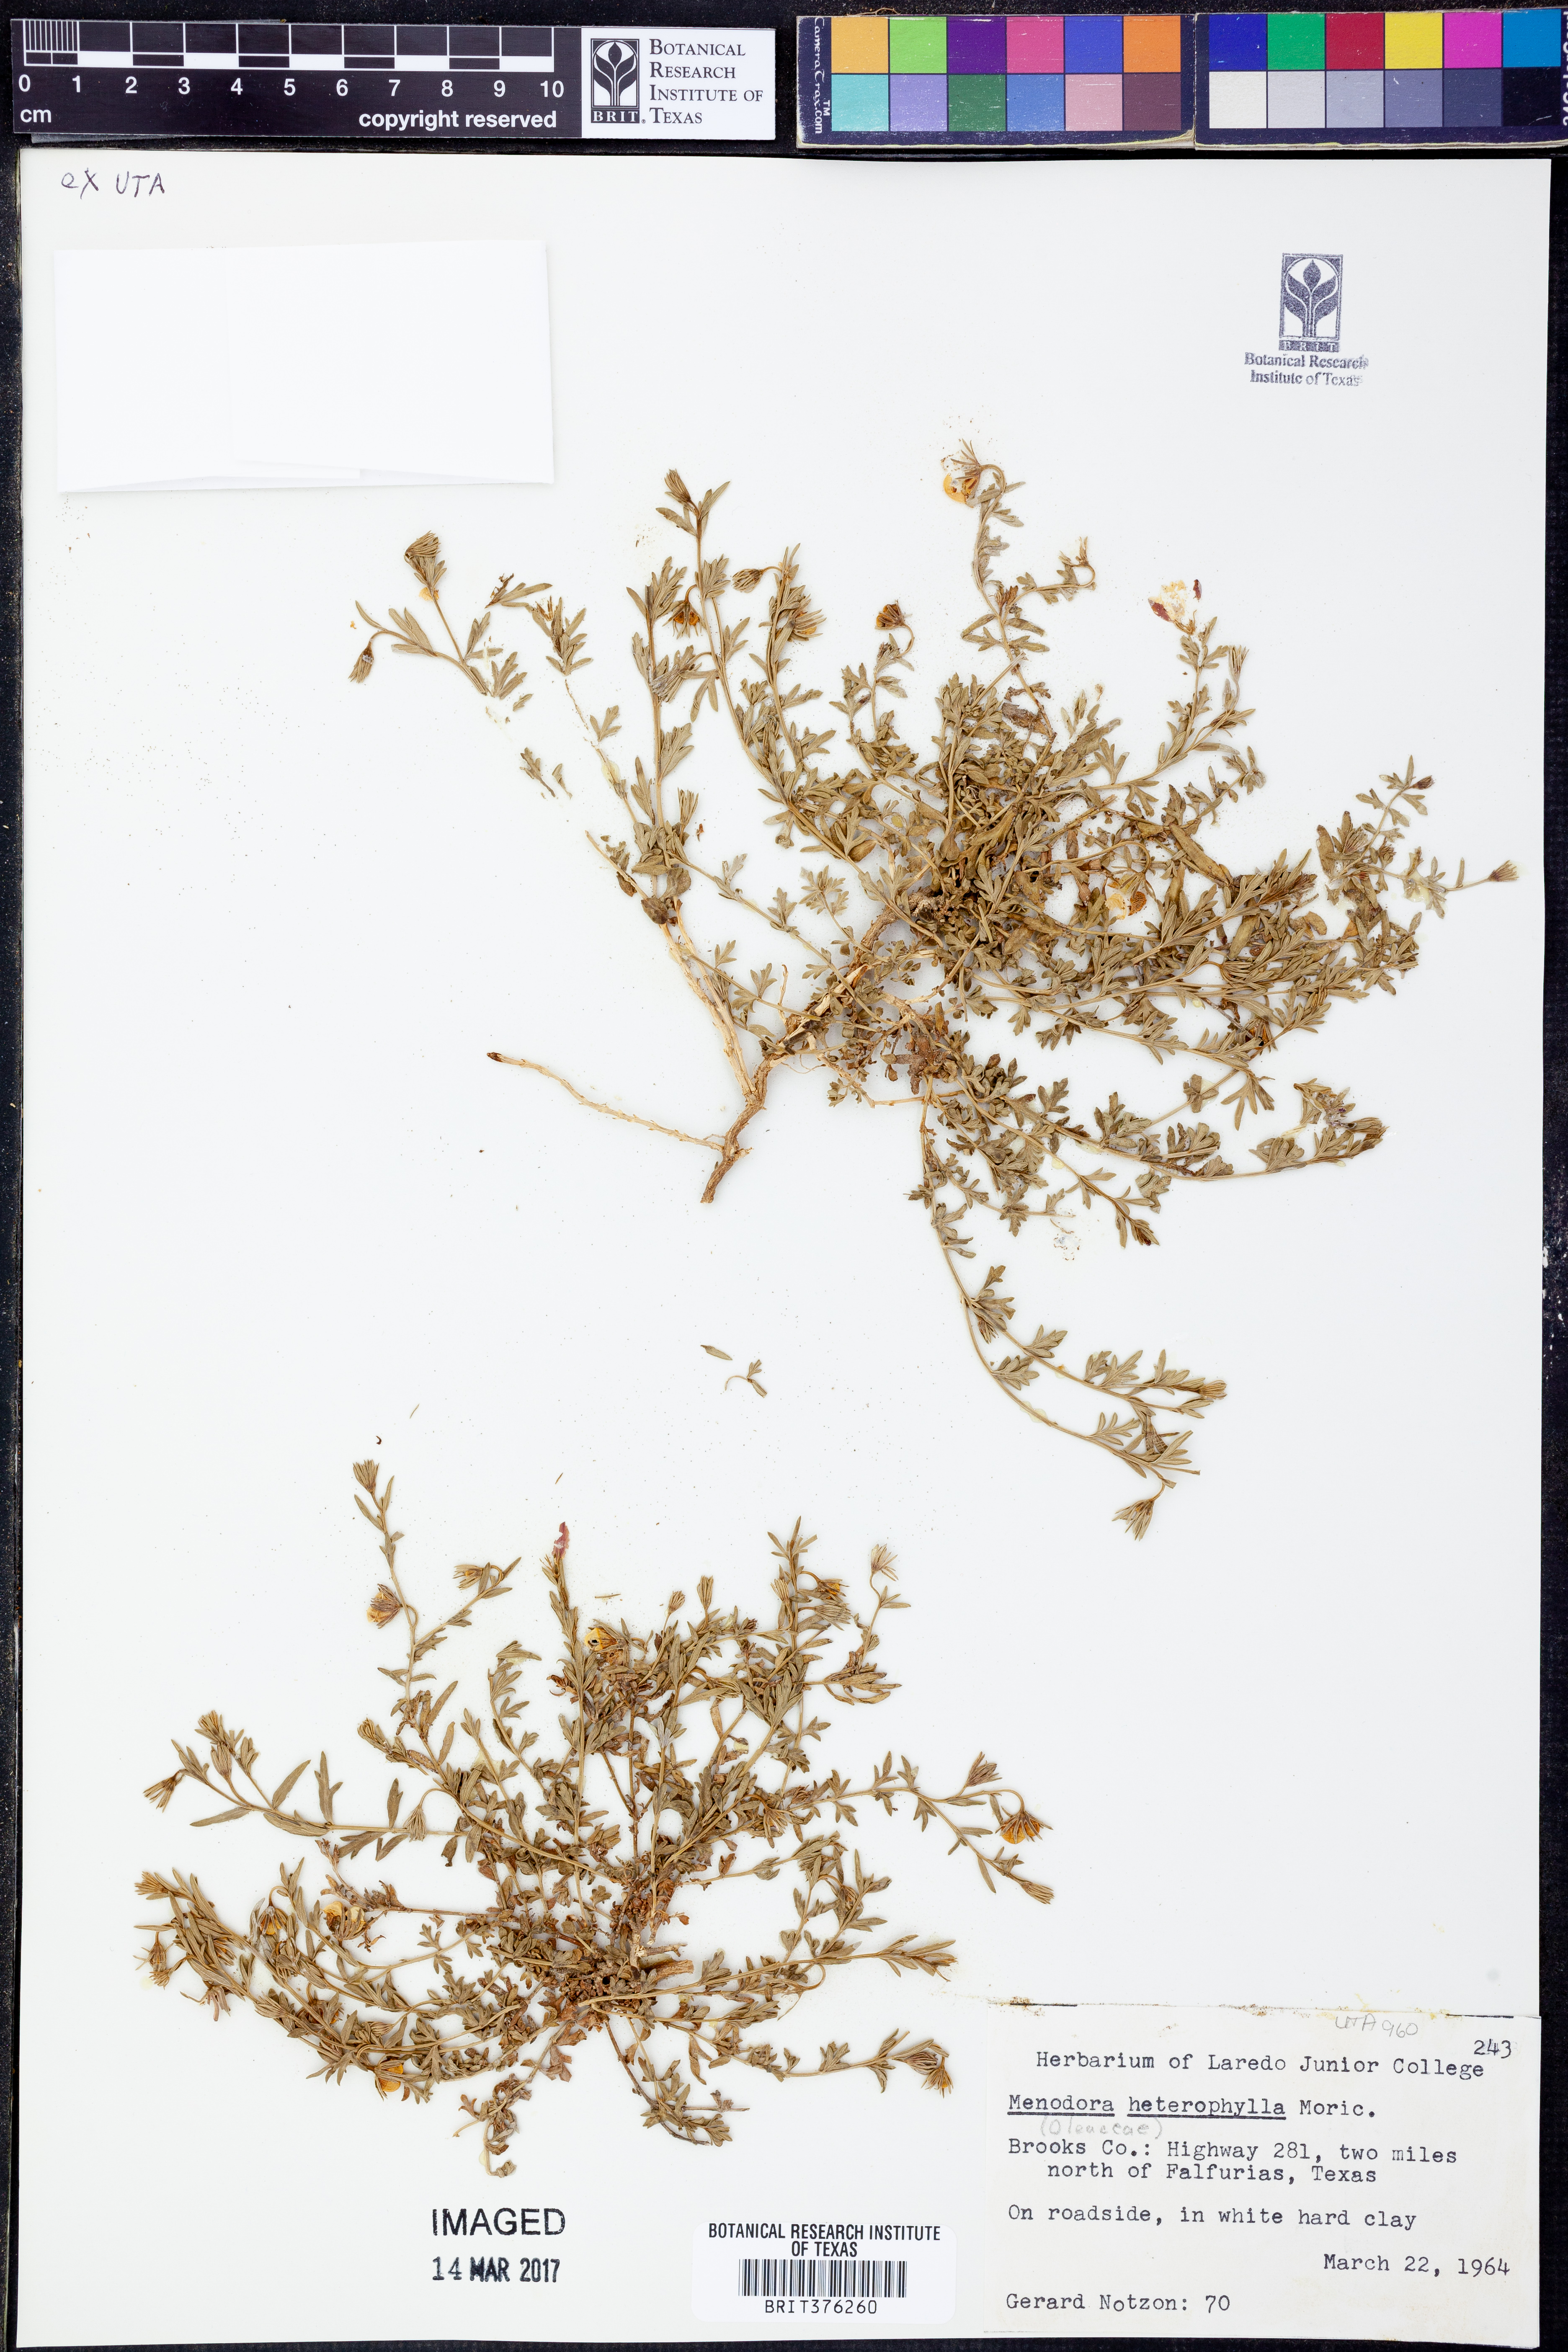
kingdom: Plantae
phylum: Tracheophyta
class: Magnoliopsida
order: Lamiales
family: Oleaceae
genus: Menodora
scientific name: Menodora heterophylla
